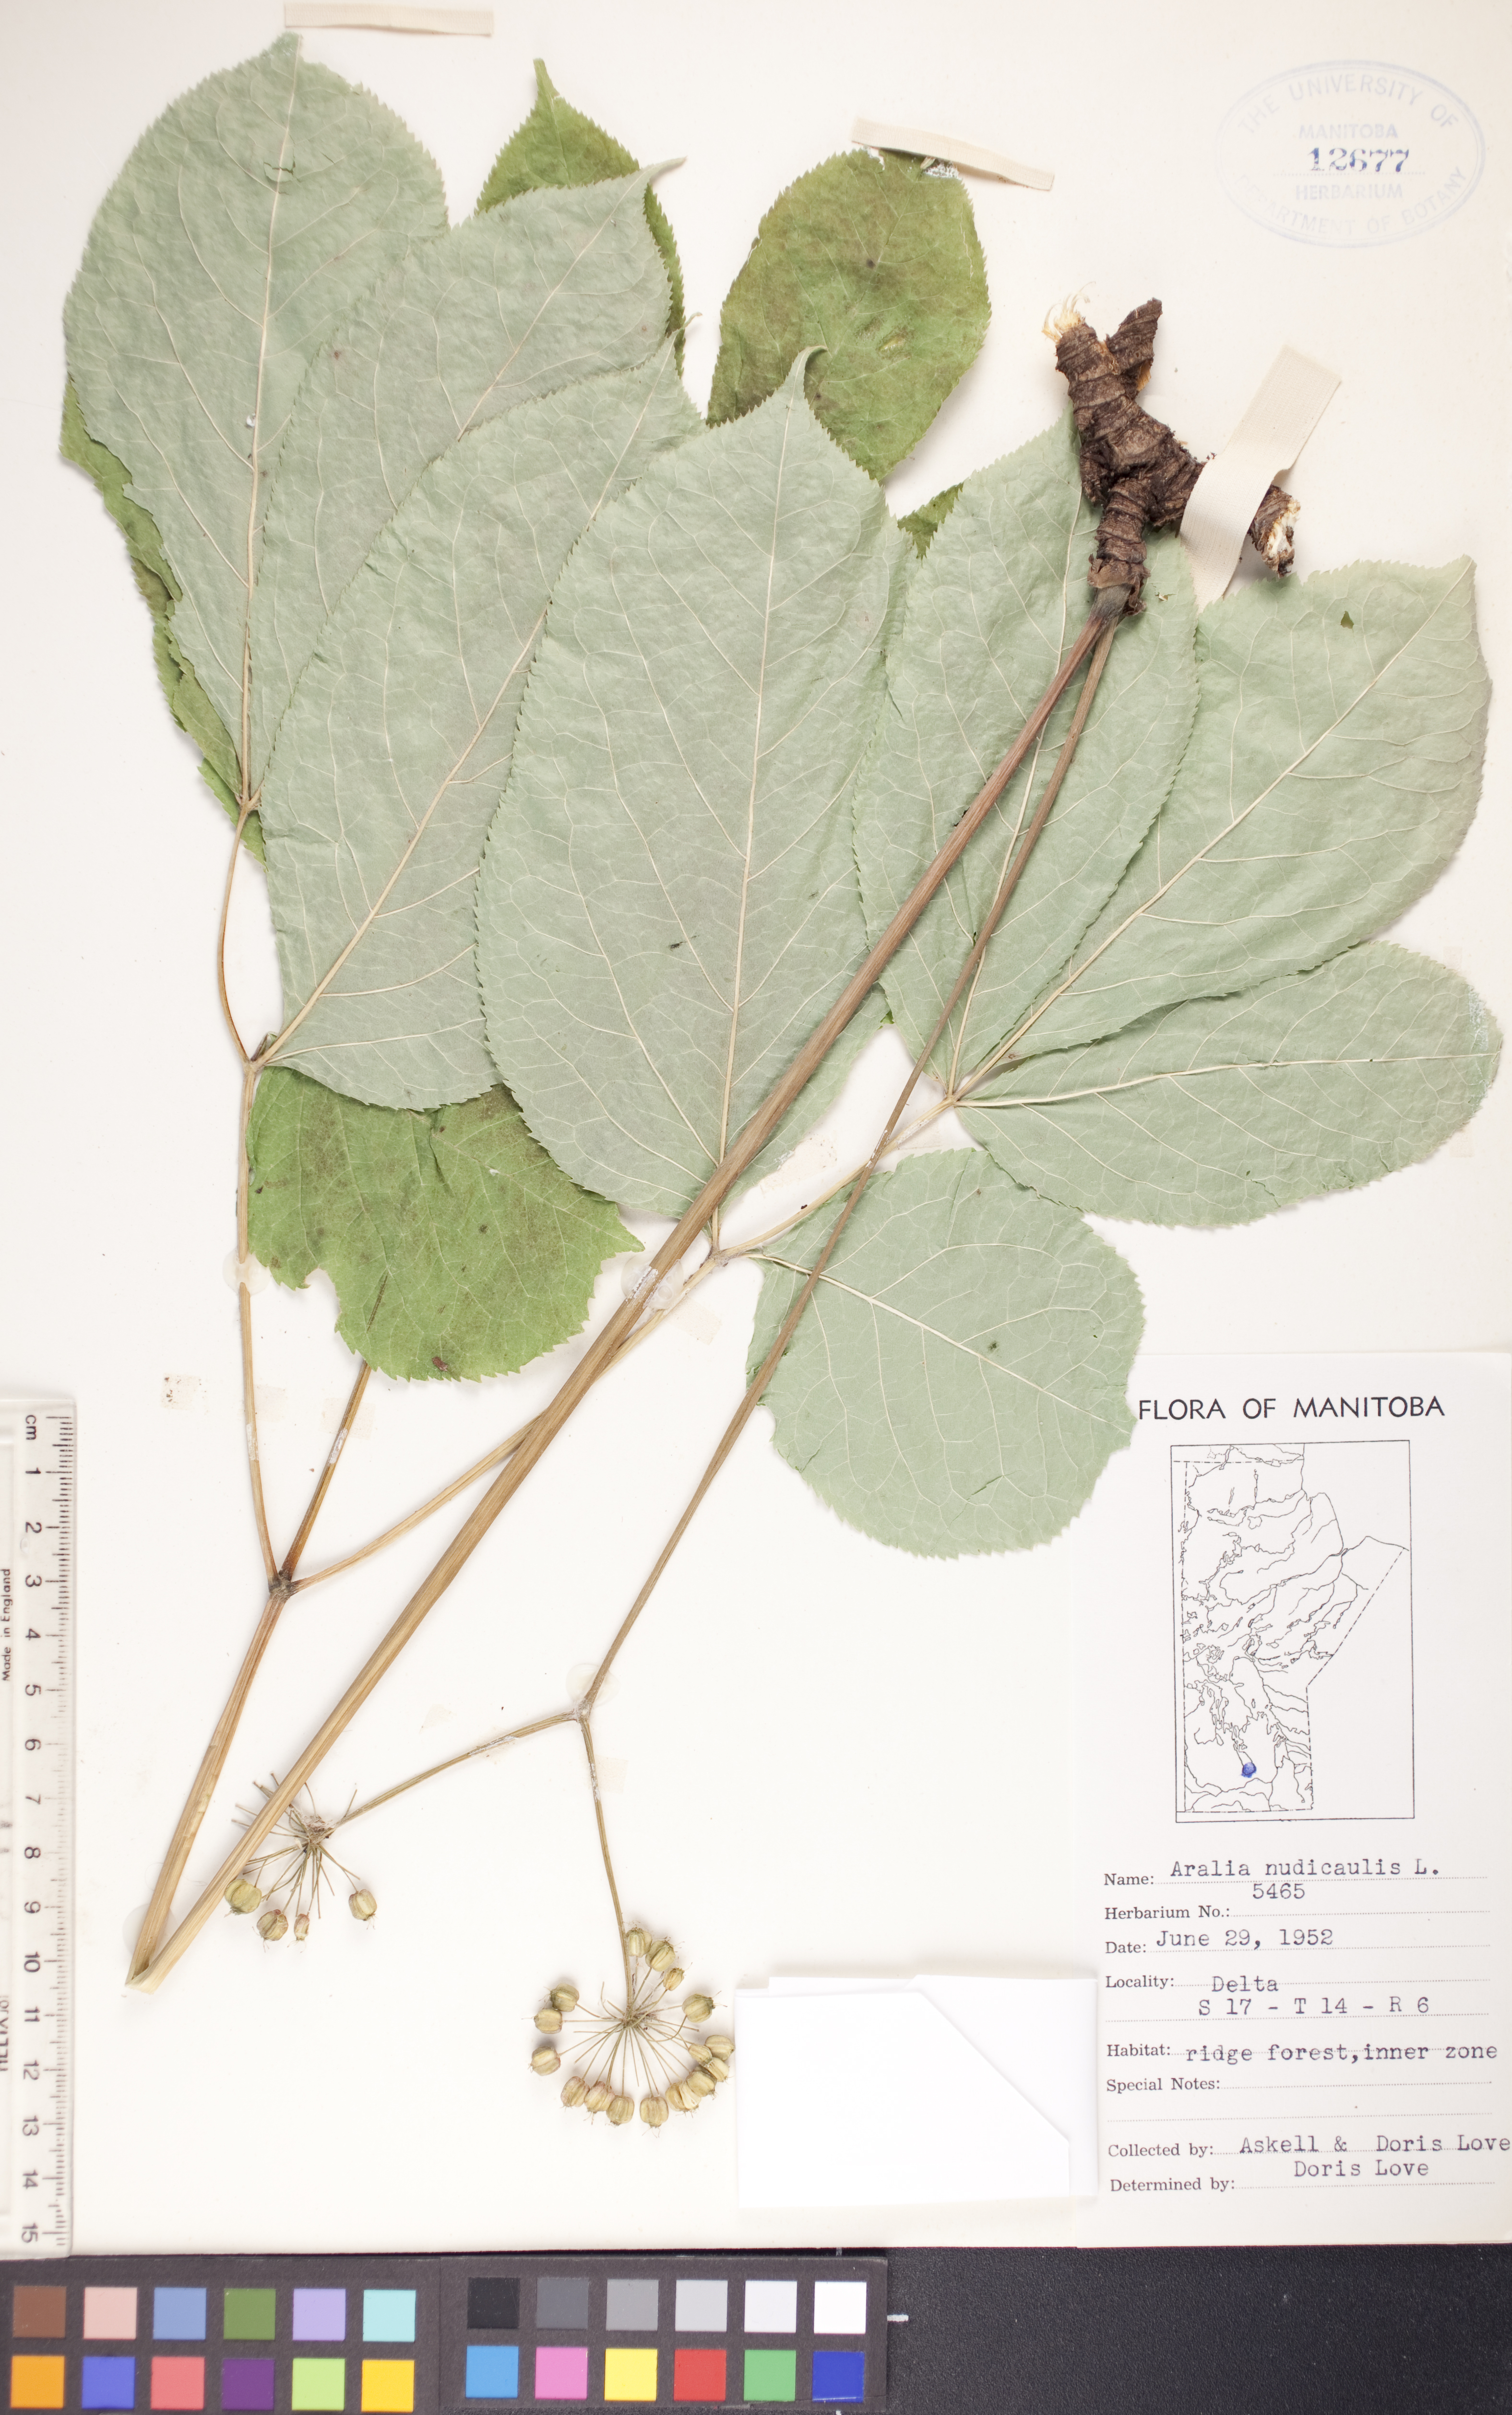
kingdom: Plantae
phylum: Tracheophyta
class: Magnoliopsida
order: Apiales
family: Araliaceae
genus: Aralia
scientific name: Aralia nudicaulis
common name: Wild sarsaparilla
